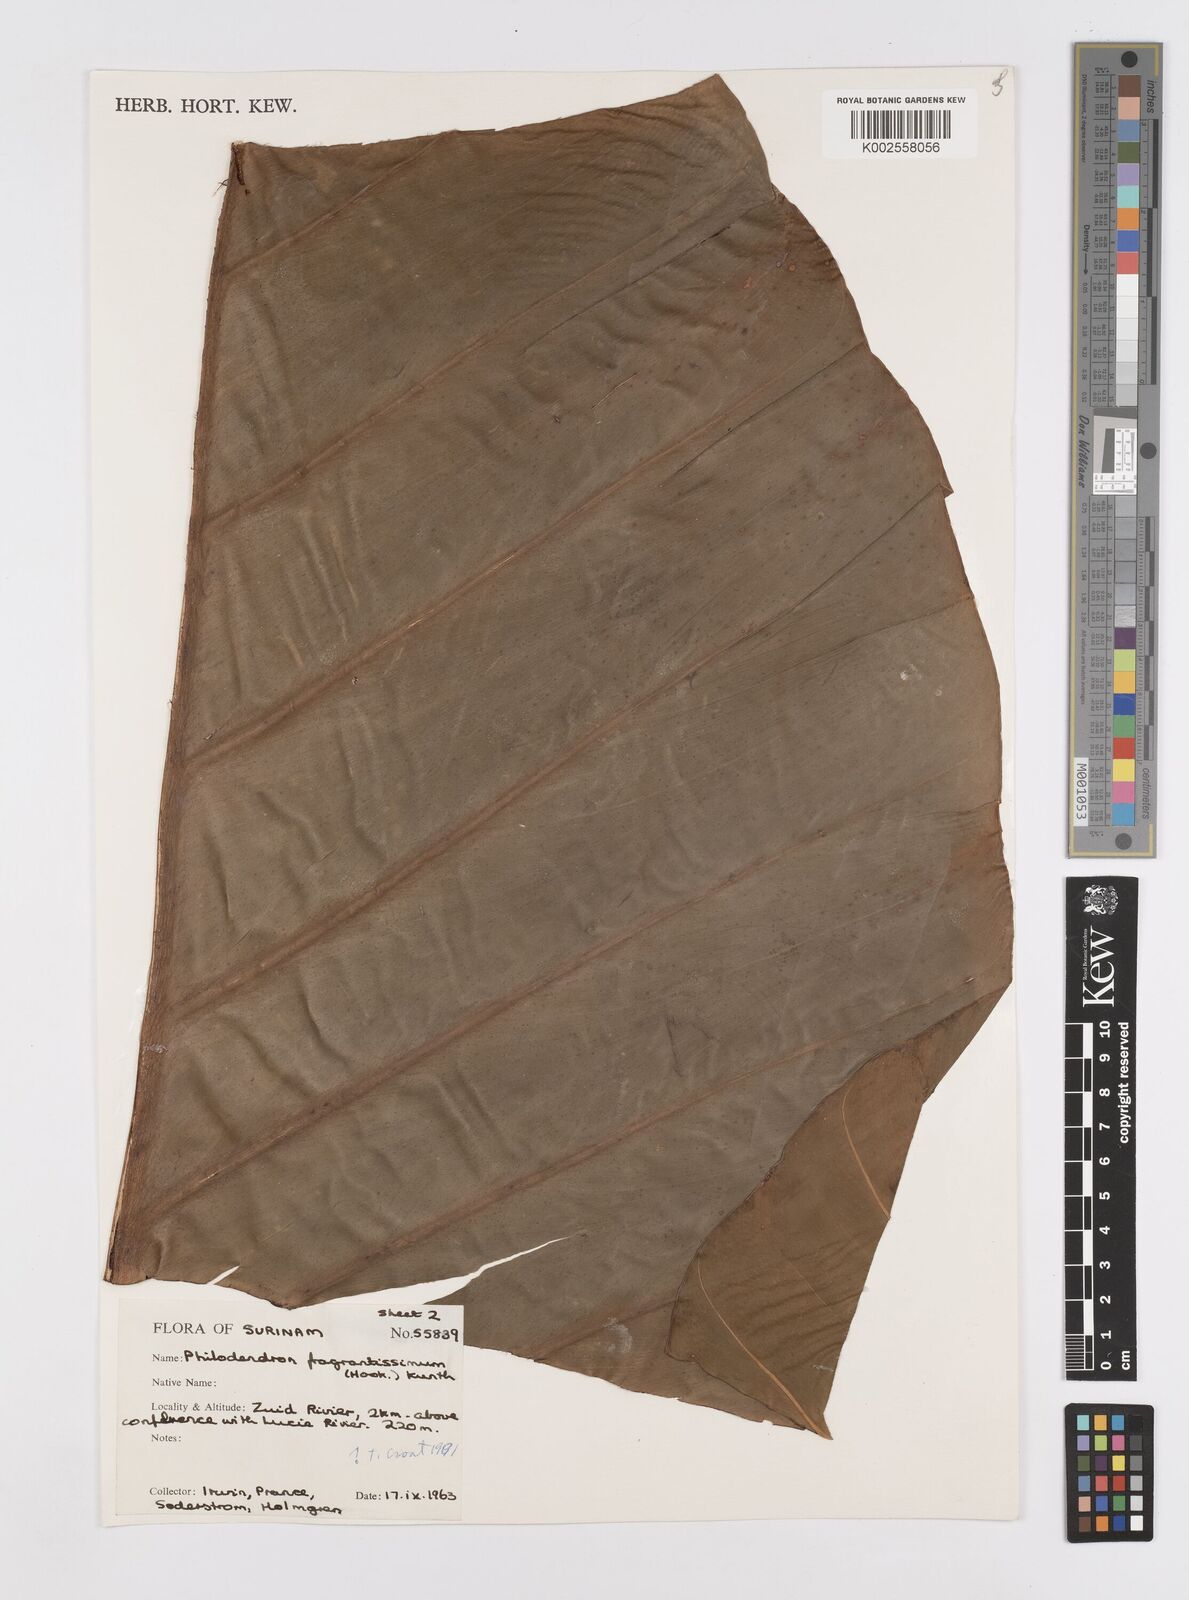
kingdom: Plantae
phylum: Tracheophyta
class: Liliopsida
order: Alismatales
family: Araceae
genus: Philodendron
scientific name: Philodendron fragrantissimum
